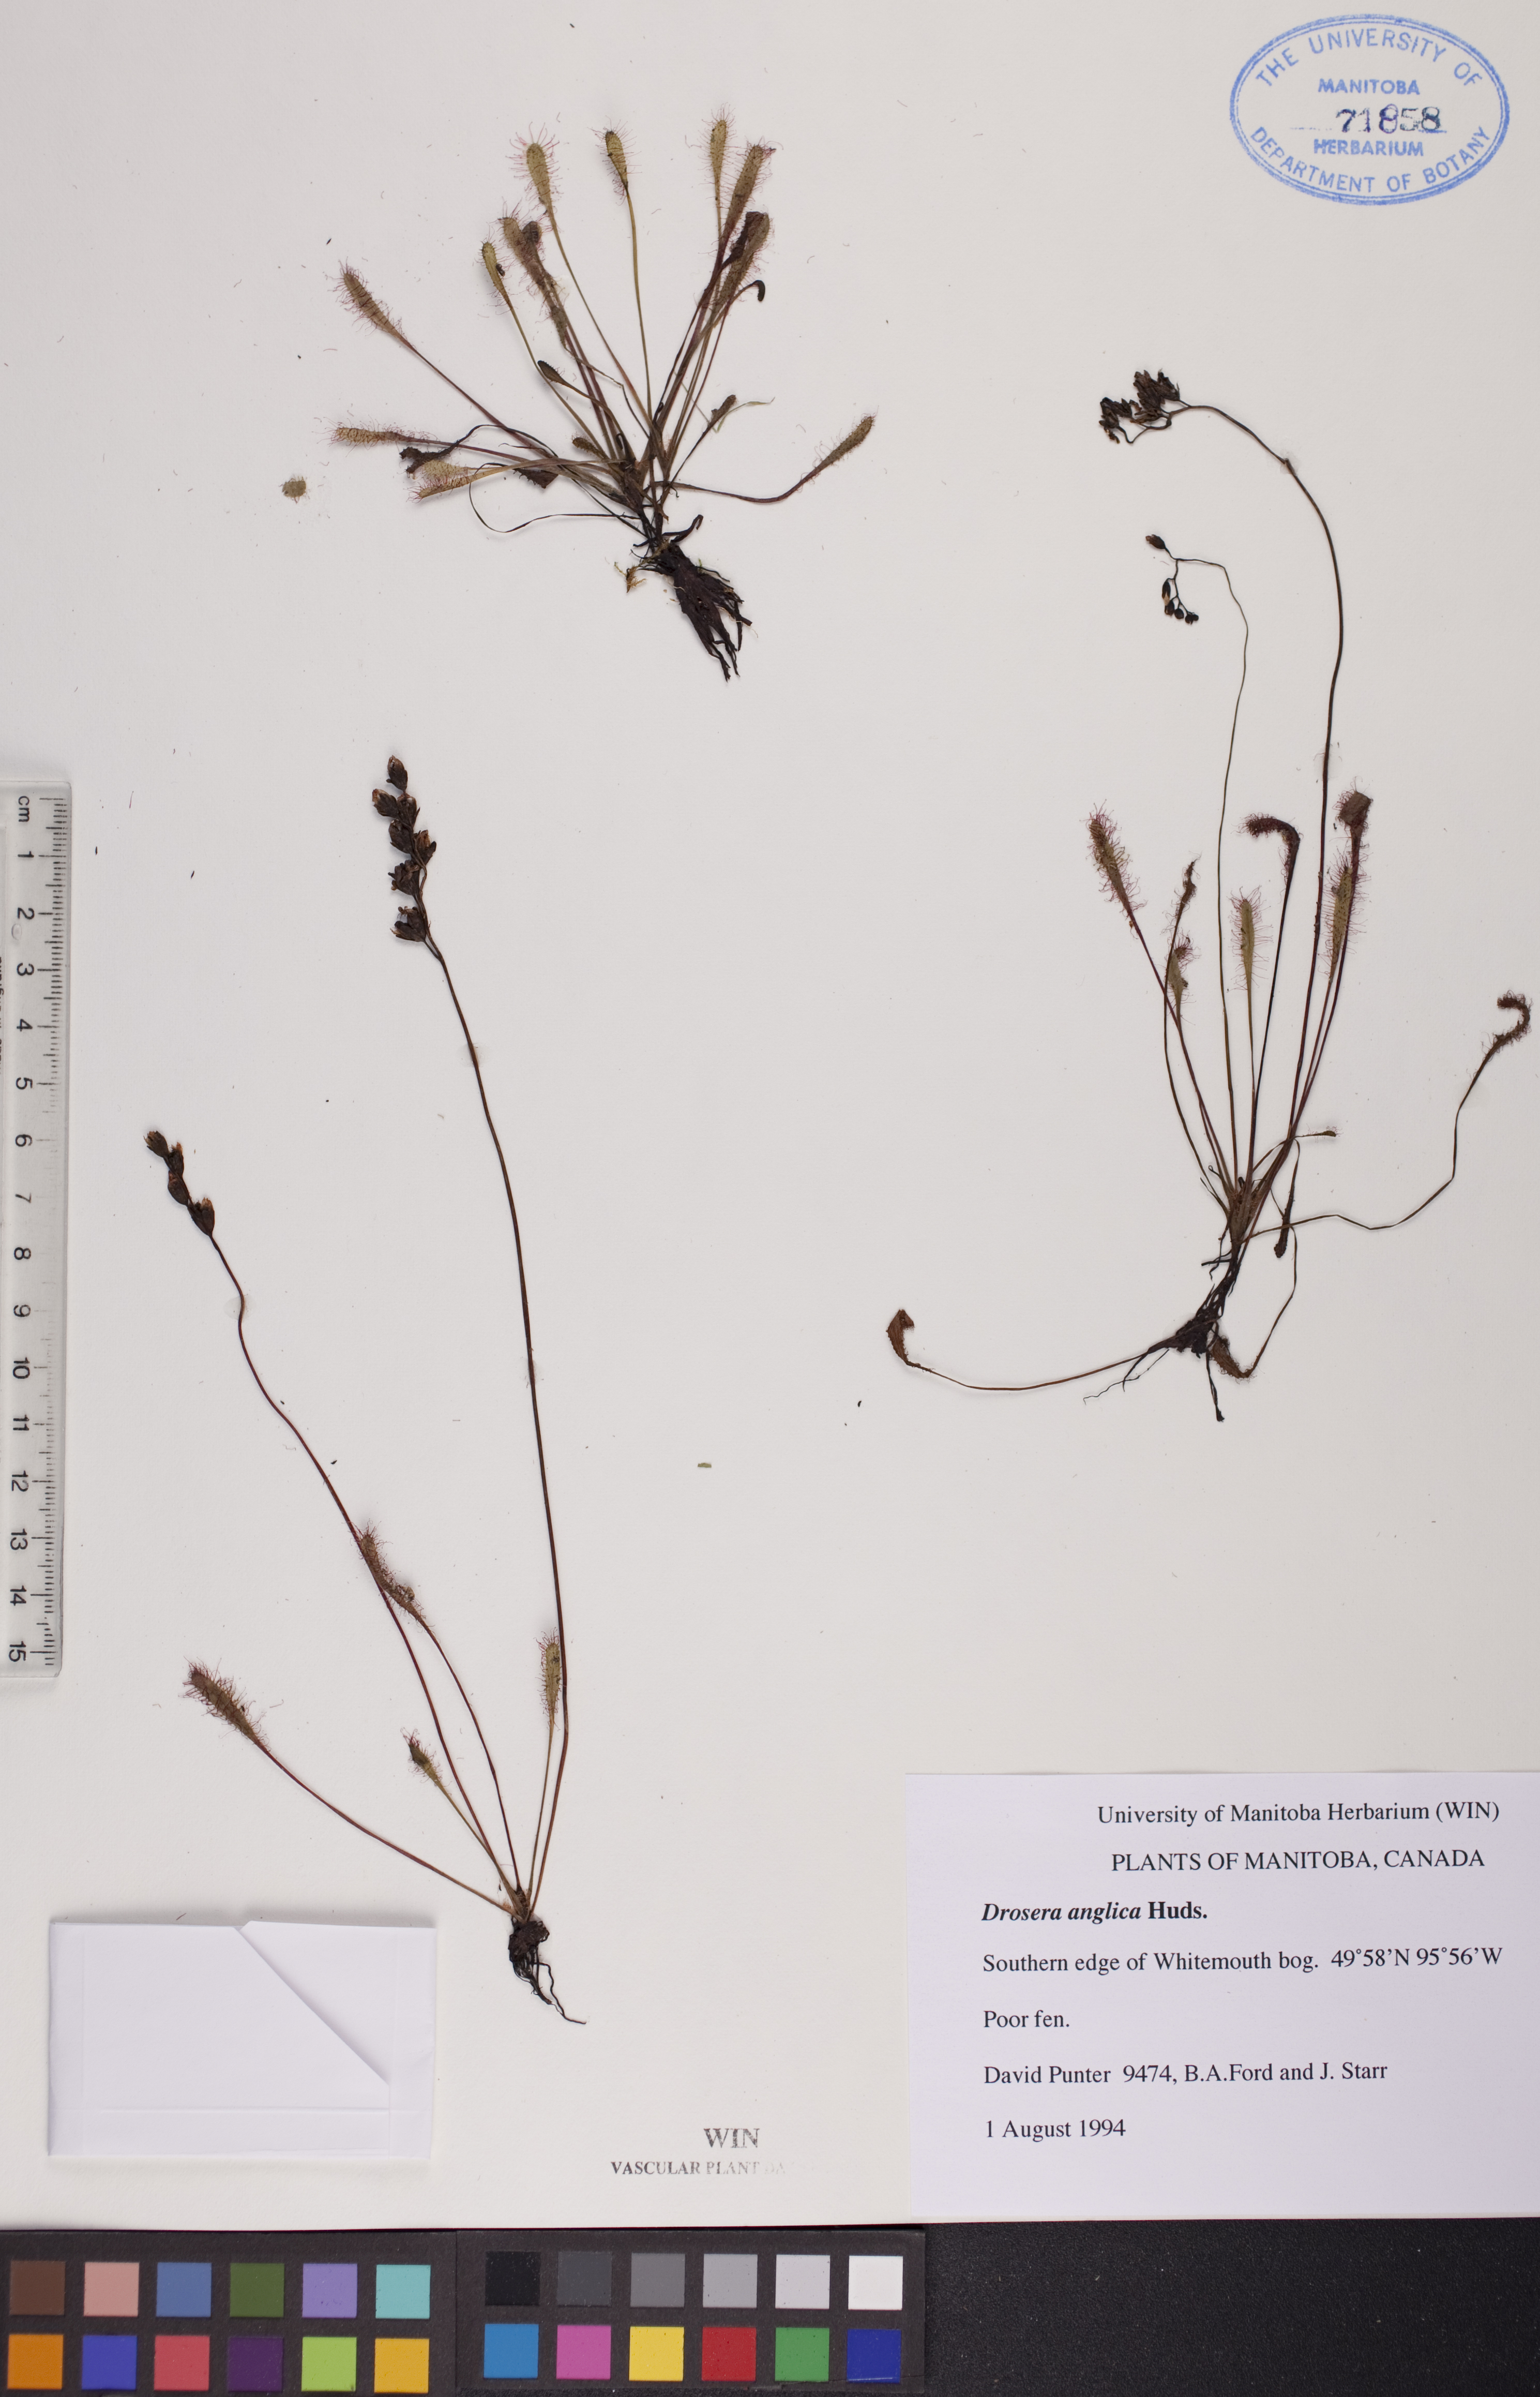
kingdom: Plantae
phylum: Tracheophyta
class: Magnoliopsida
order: Caryophyllales
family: Droseraceae
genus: Drosera
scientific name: Drosera anglica
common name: Great sundew
